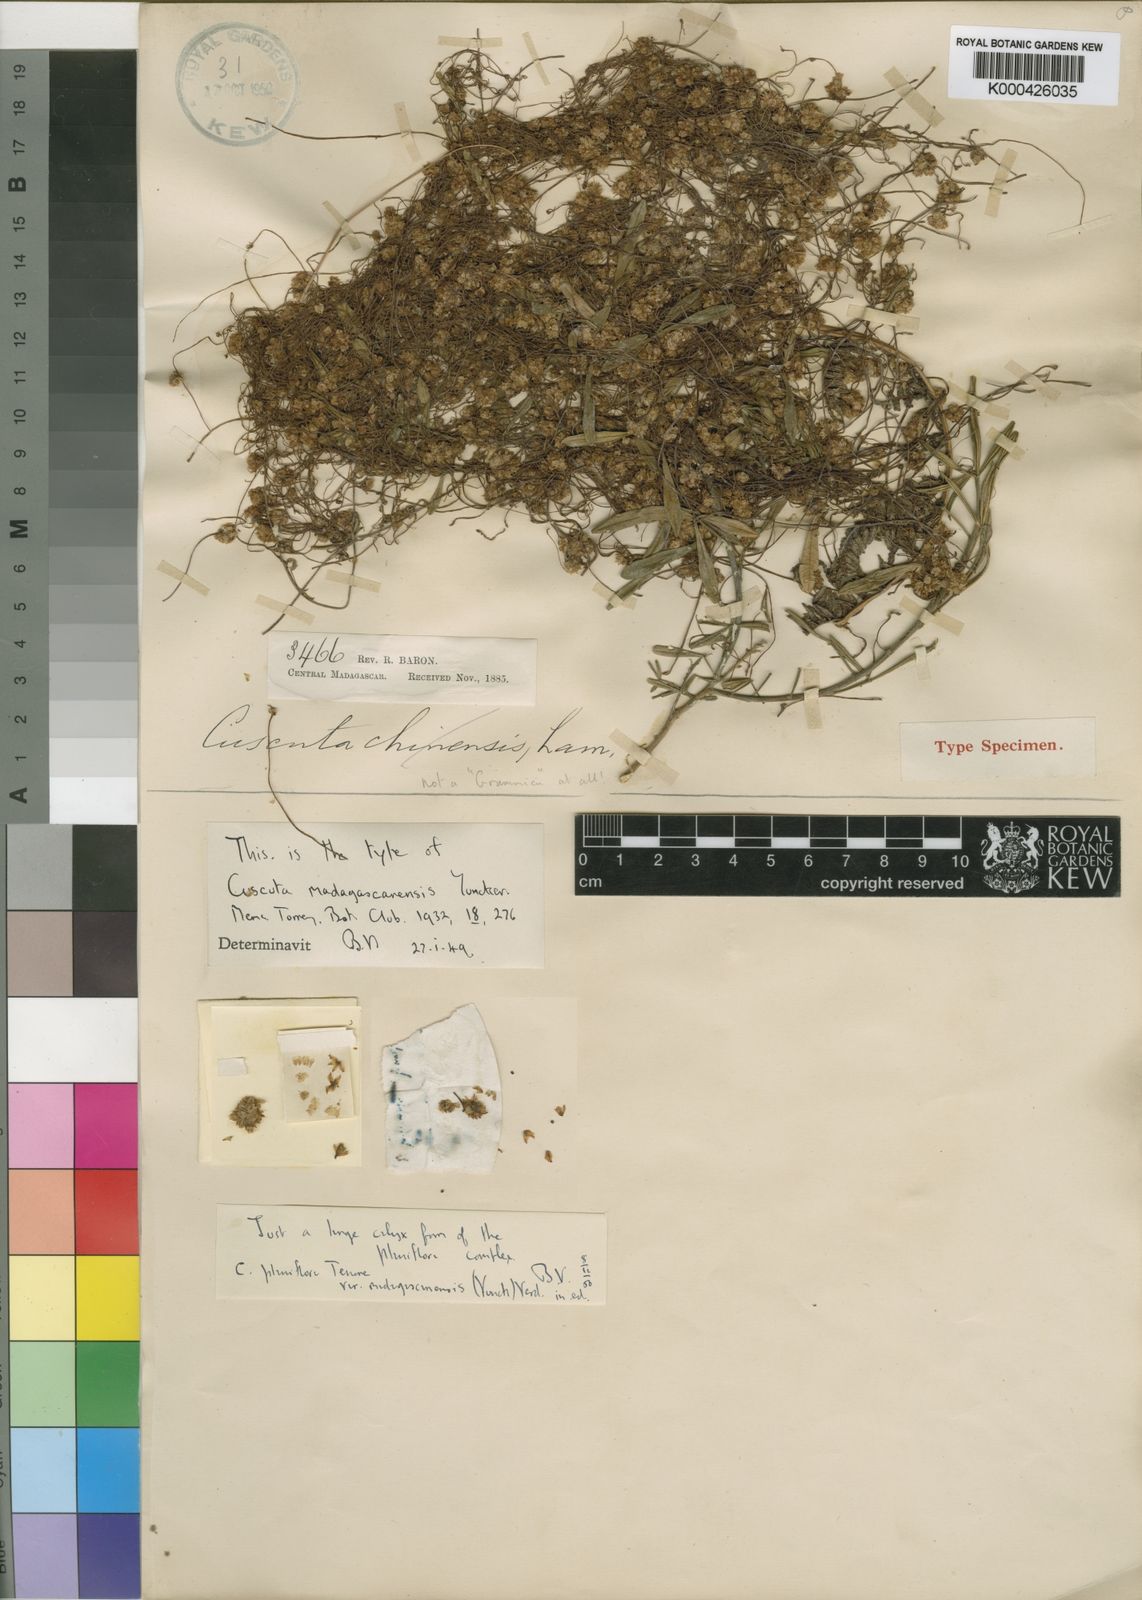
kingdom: Plantae
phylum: Tracheophyta
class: Magnoliopsida
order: Solanales
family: Convolvulaceae
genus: Cuscuta
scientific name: Cuscuta planiflora
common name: Small-seed alfalfa dodder
